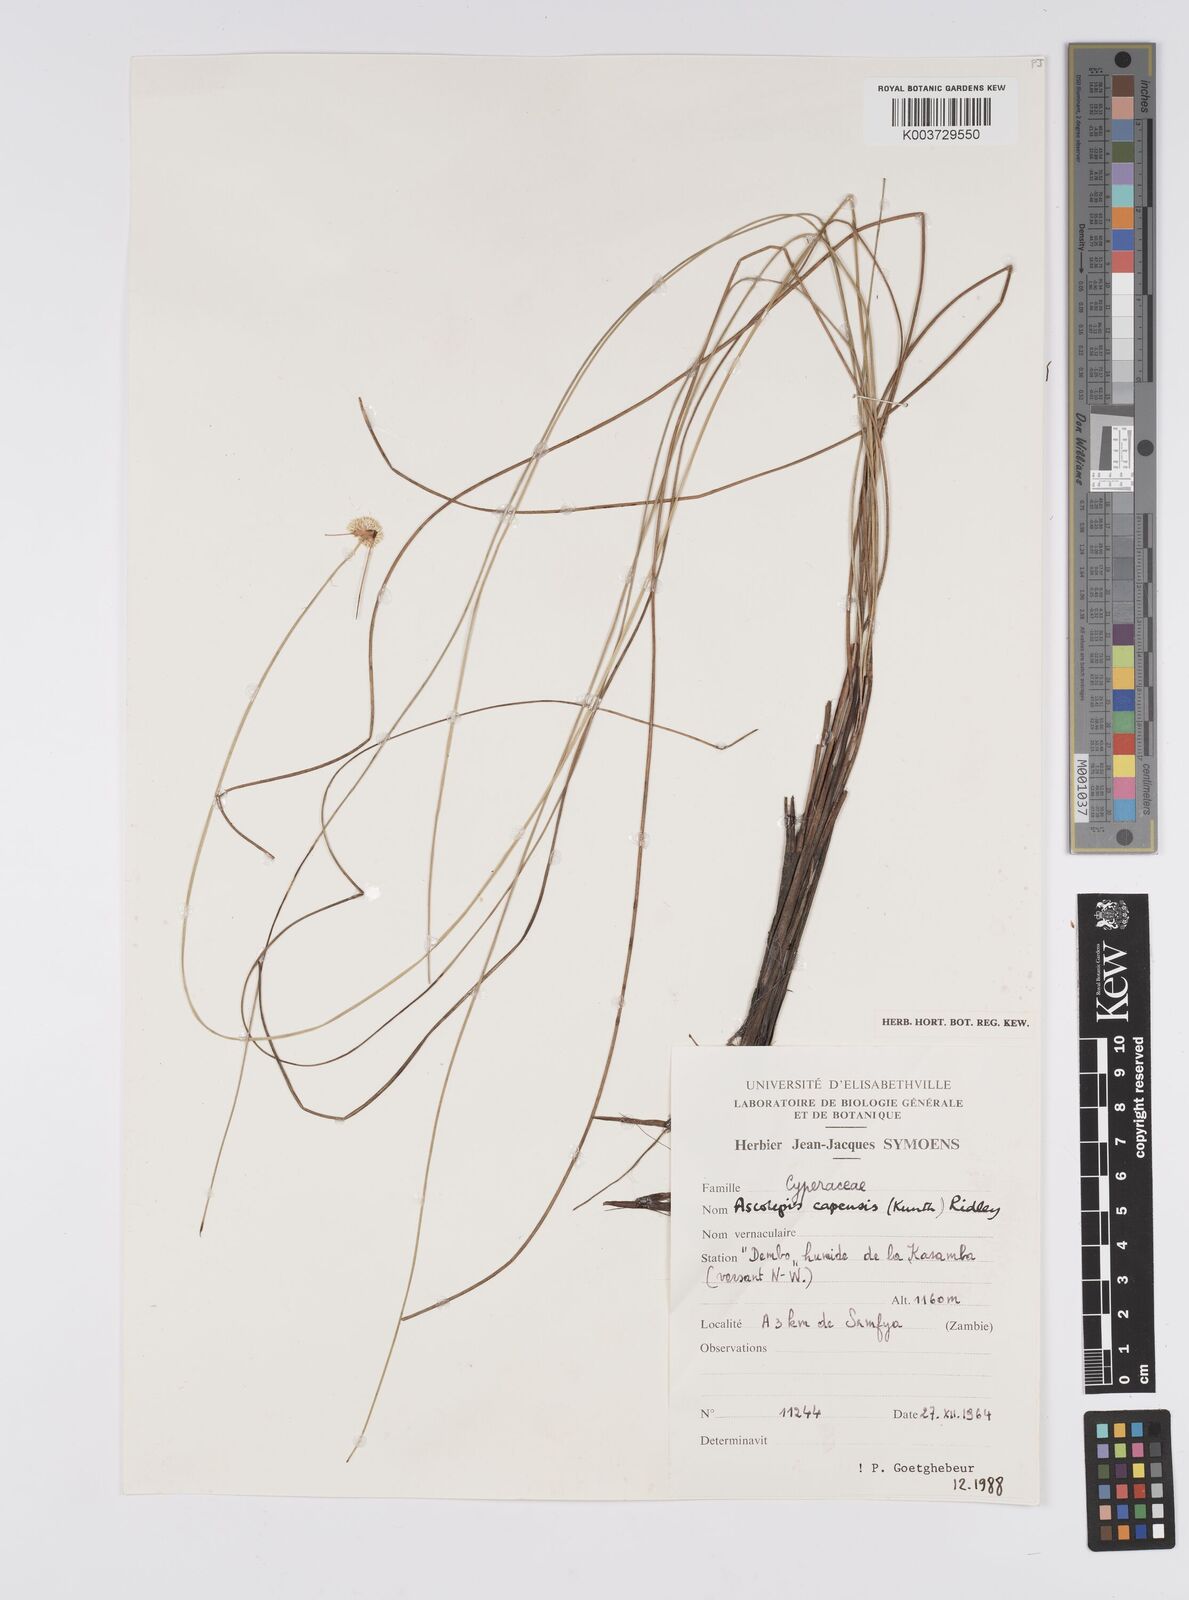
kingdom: Plantae
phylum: Tracheophyta
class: Liliopsida
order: Poales
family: Cyperaceae
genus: Cyperus
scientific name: Cyperus
